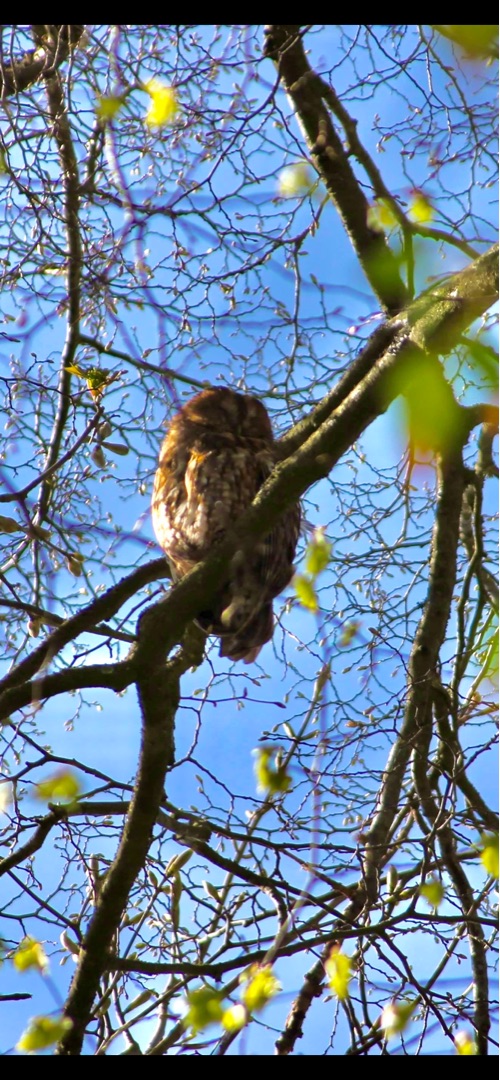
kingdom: Animalia
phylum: Chordata
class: Aves
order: Strigiformes
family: Strigidae
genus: Strix
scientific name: Strix aluco
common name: Natugle
